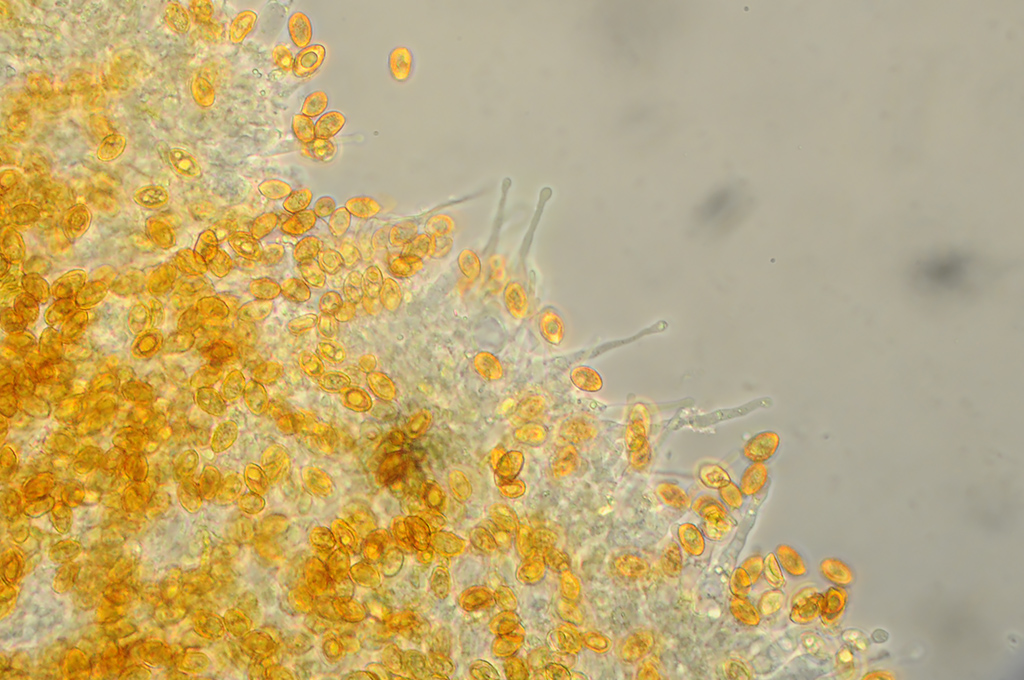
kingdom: Fungi
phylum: Basidiomycota
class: Agaricomycetes
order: Agaricales
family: Hymenogastraceae
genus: Galerina
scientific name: Galerina esteve-raventosii
